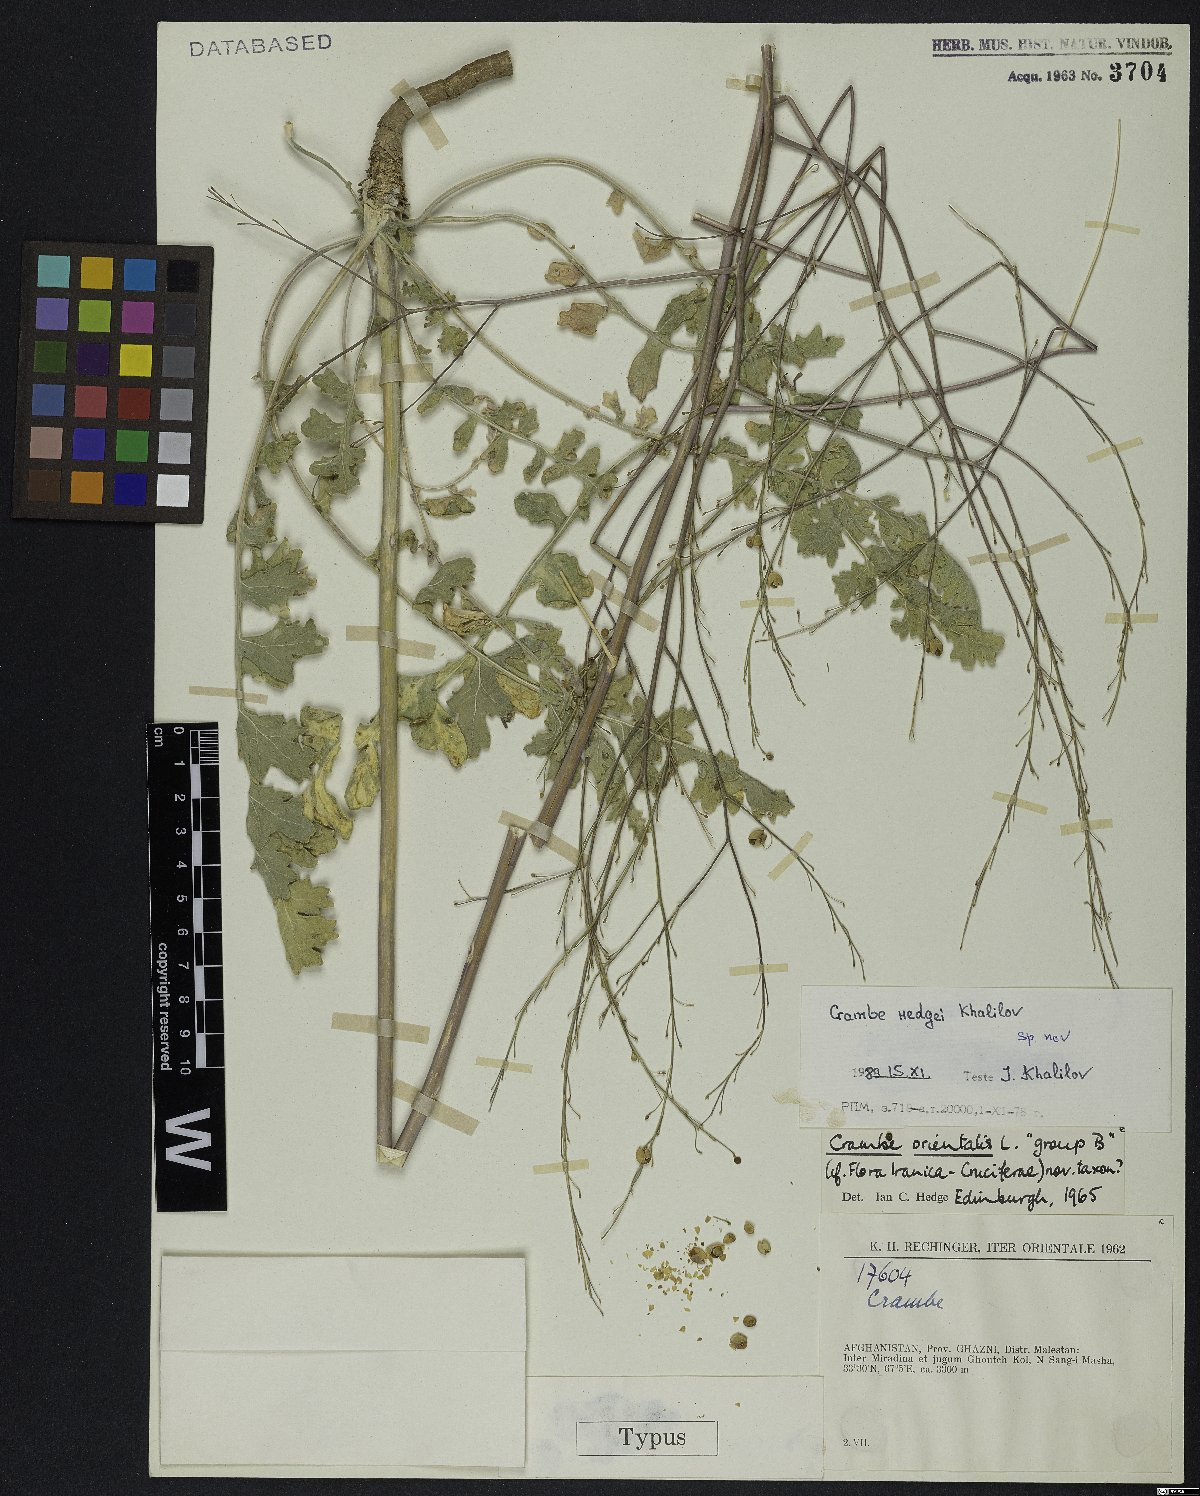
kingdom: Plantae
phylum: Tracheophyta
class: Magnoliopsida
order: Brassicales
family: Brassicaceae
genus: Crambe
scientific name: Crambe hedgei
